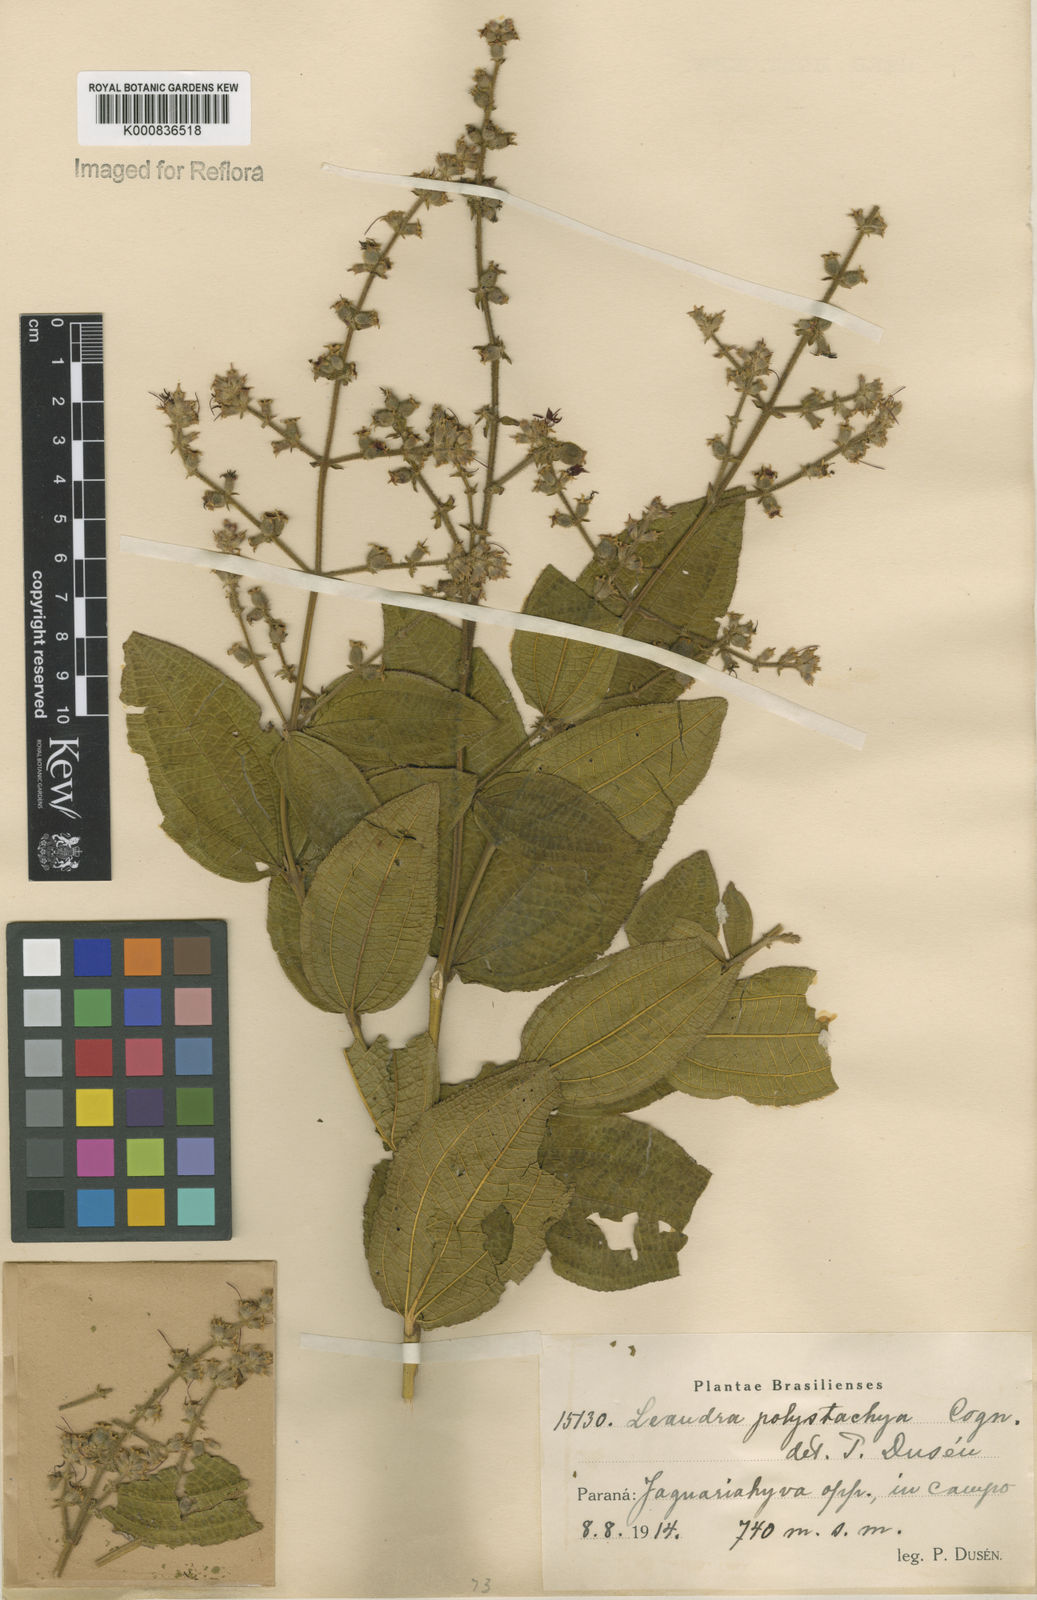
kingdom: Plantae
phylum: Tracheophyta
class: Magnoliopsida
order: Myrtales
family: Melastomataceae
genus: Miconia
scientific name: Miconia polystachya
